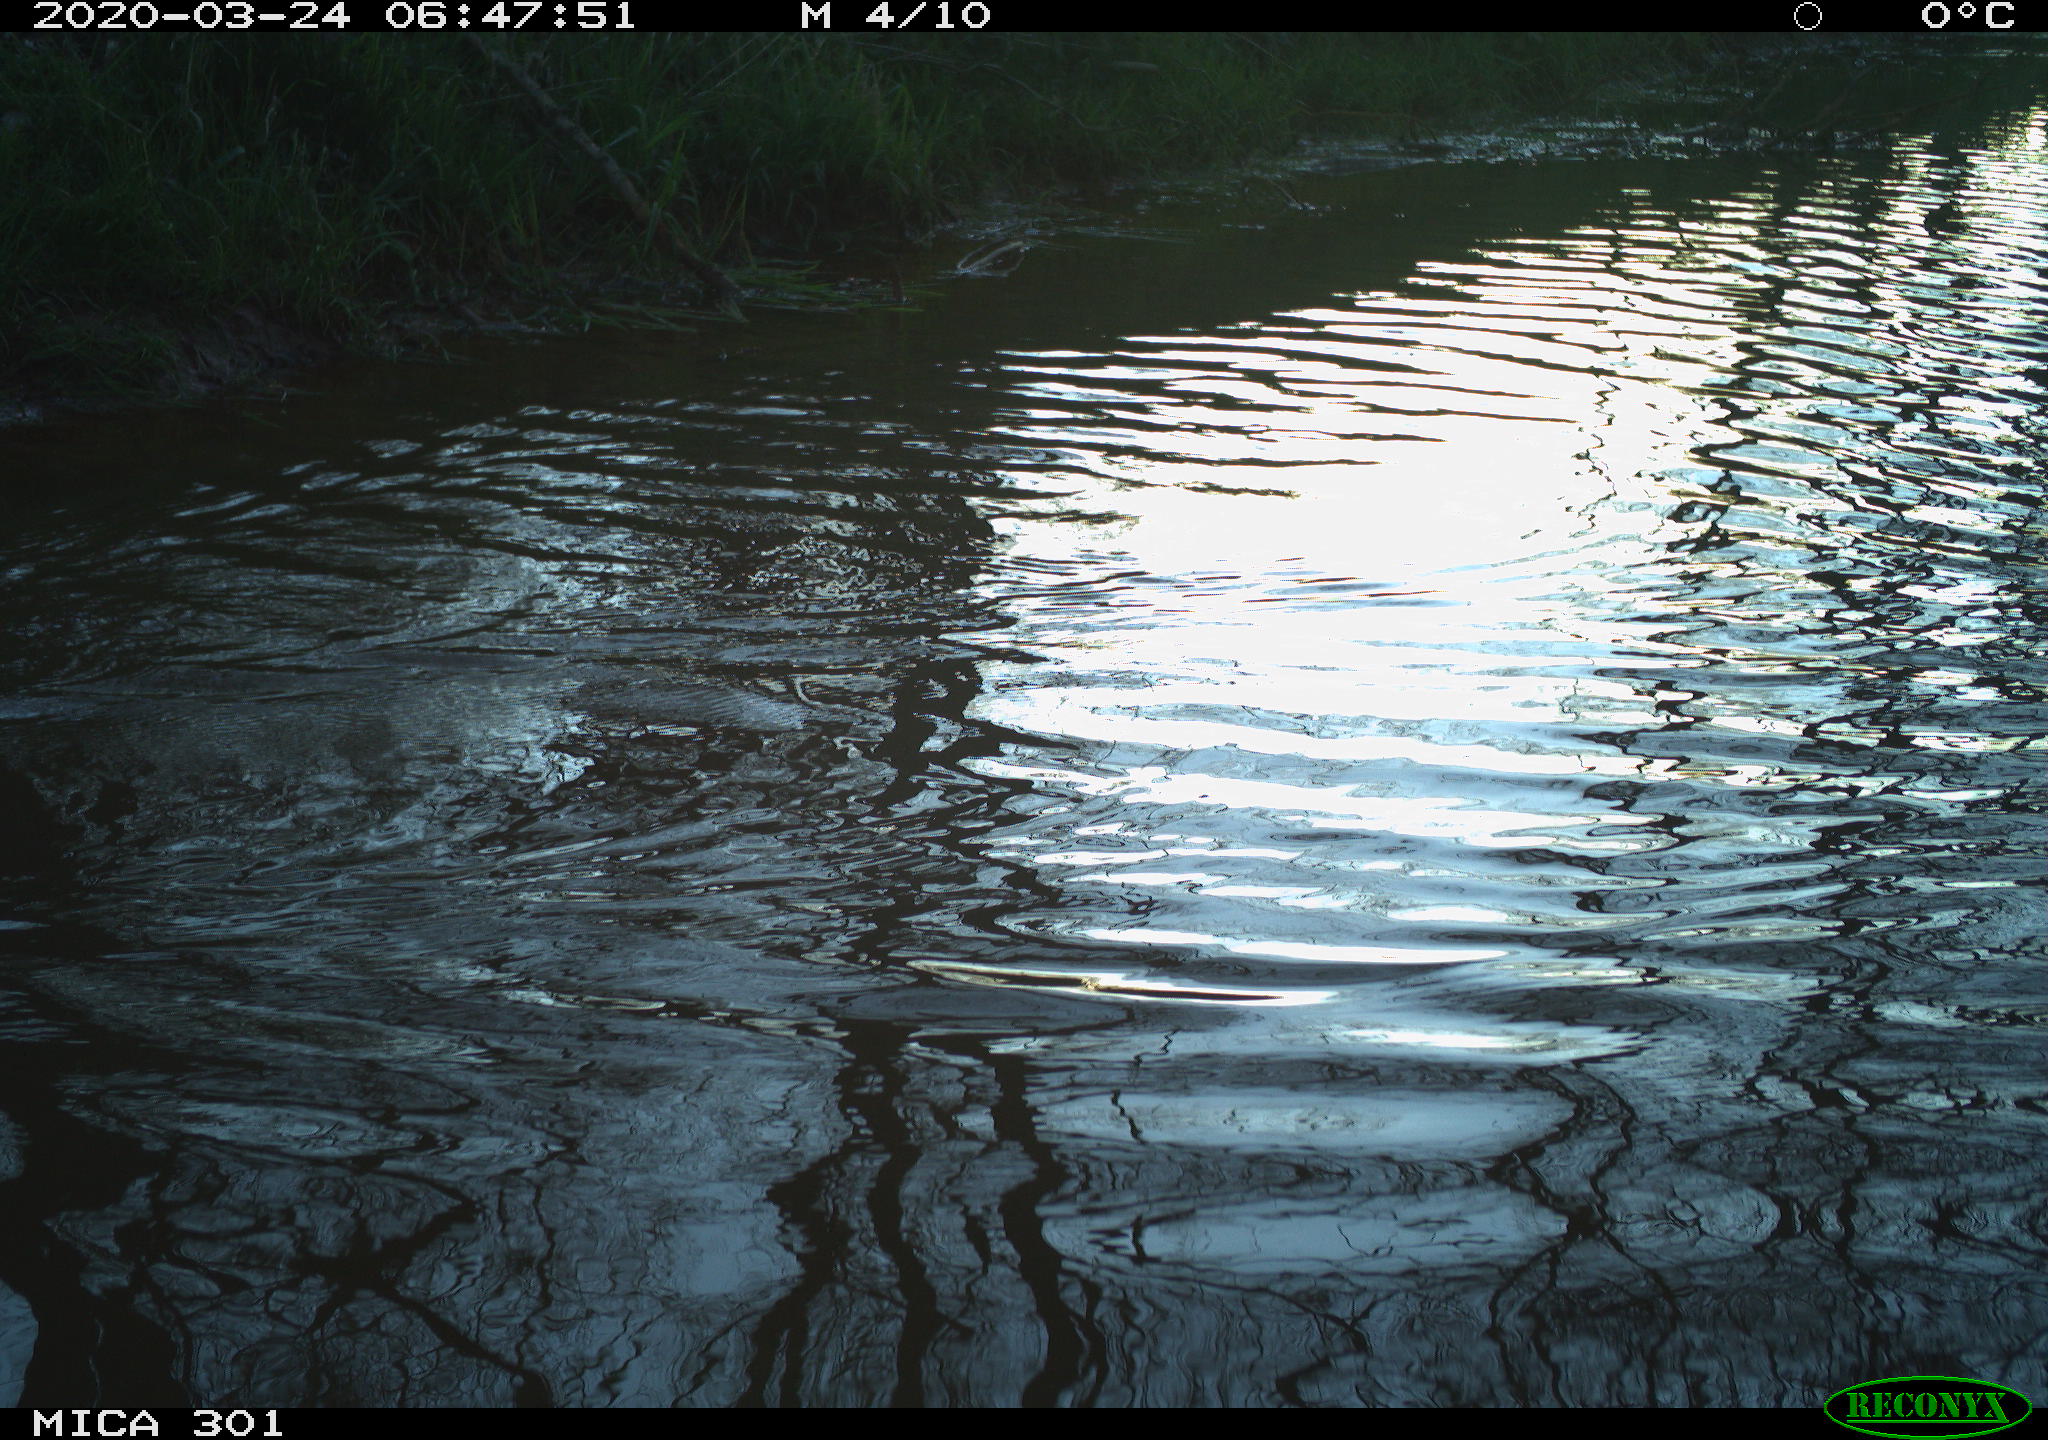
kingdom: Animalia
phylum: Chordata
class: Aves
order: Anseriformes
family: Anatidae
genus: Aix
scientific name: Aix galericulata
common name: Mandarin duck
